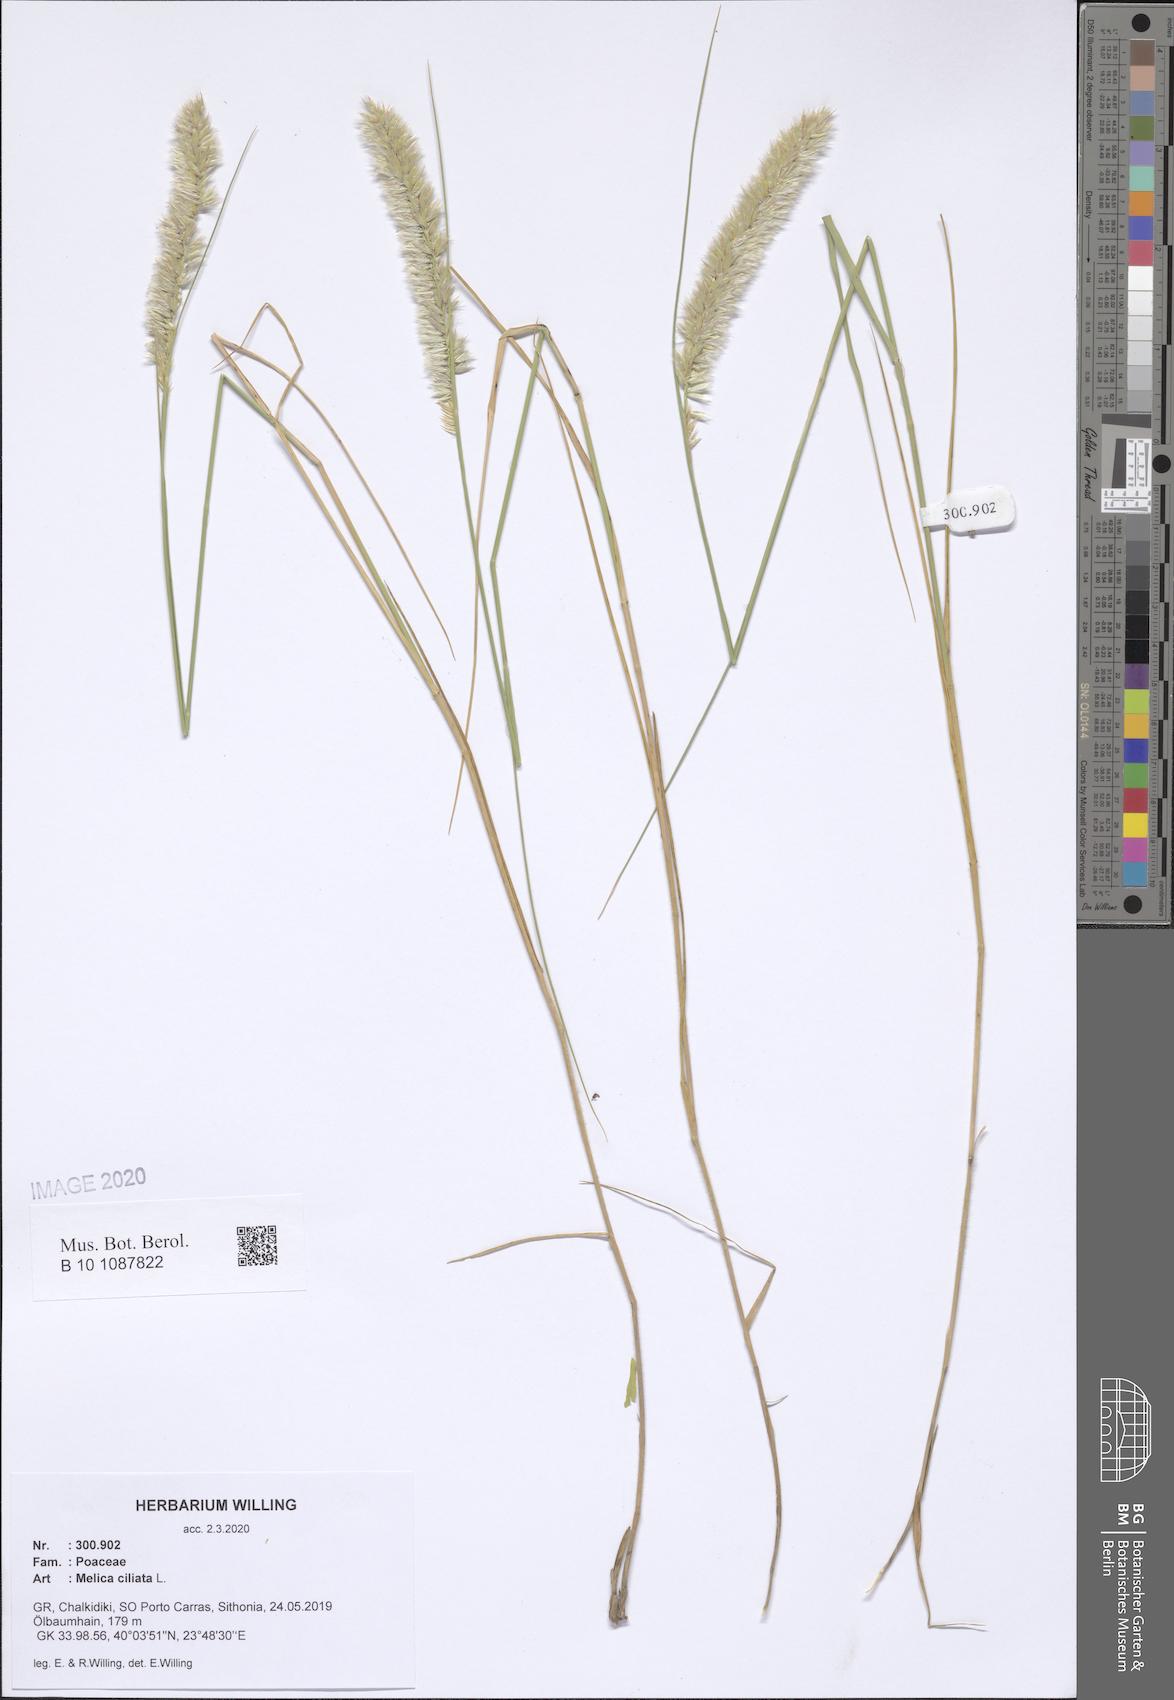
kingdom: Plantae
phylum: Tracheophyta
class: Liliopsida
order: Poales
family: Poaceae
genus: Melica
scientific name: Melica ciliata
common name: Hairy melicgrass
